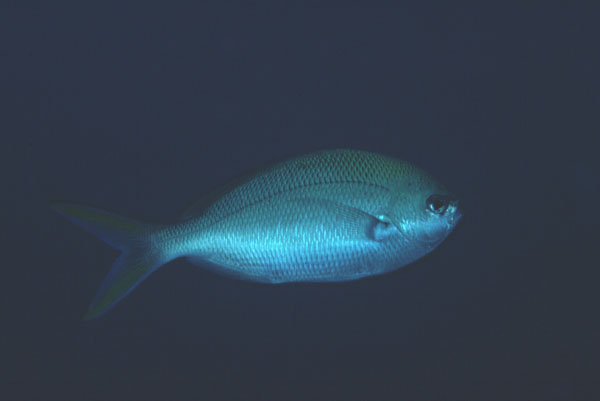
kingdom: Animalia
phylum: Chordata
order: Perciformes
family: Caesionidae
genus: Caesio
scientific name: Caesio cuning
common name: Red-bellied fusilier
